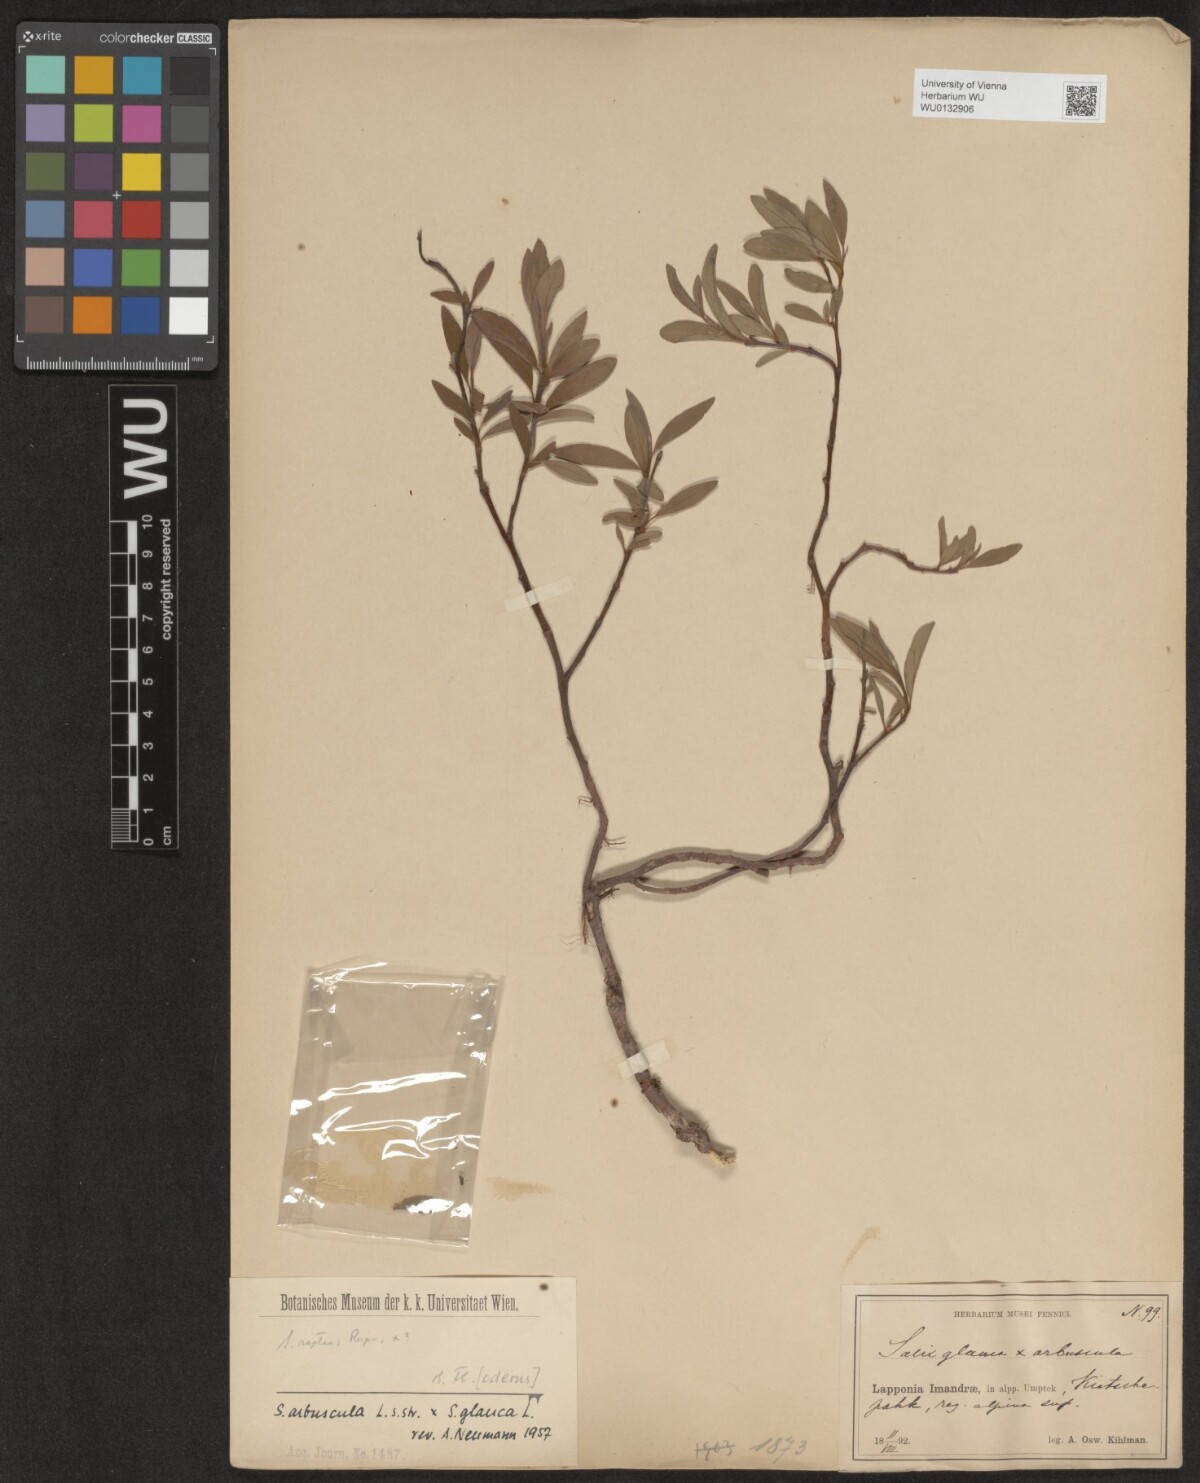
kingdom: Plantae
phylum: Tracheophyta
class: Magnoliopsida
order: Malpighiales
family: Salicaceae
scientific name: Salicaceae
